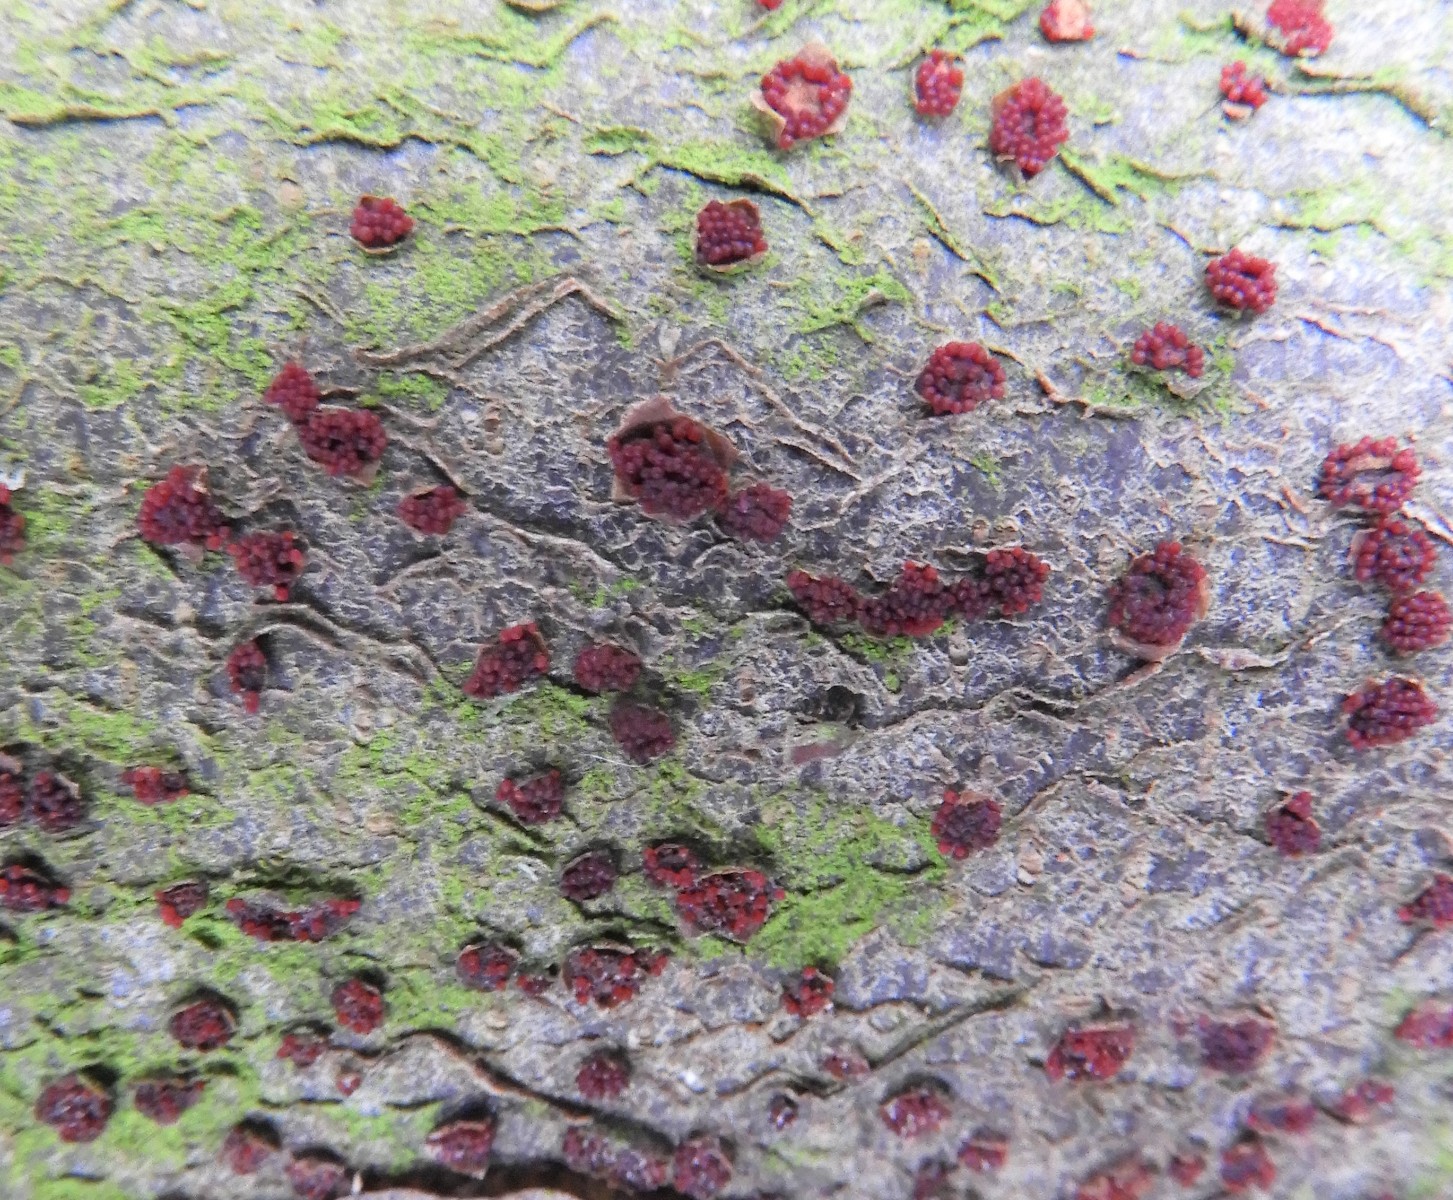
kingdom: Fungi
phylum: Ascomycota
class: Sordariomycetes
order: Hypocreales
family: Nectriaceae
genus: Neonectria
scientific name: Neonectria coccinea
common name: bøgebark-cinnobersvamp
